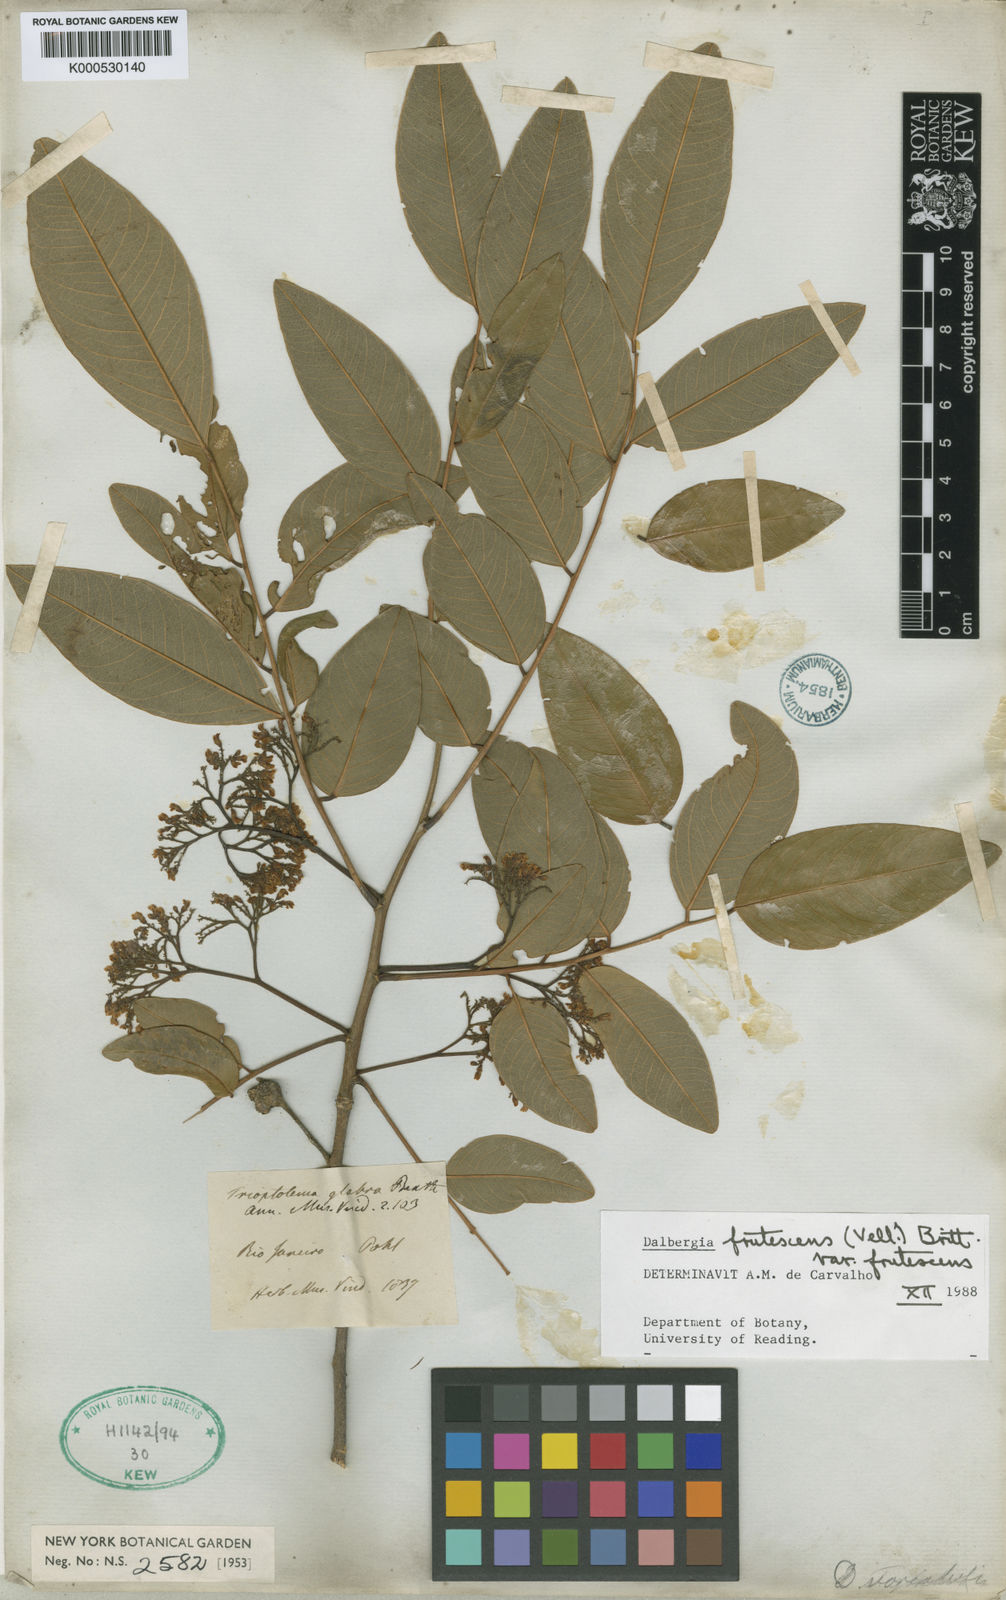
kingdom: Plantae
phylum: Tracheophyta
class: Magnoliopsida
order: Fabales
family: Fabaceae
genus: Dalbergia
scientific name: Dalbergia frutescens
